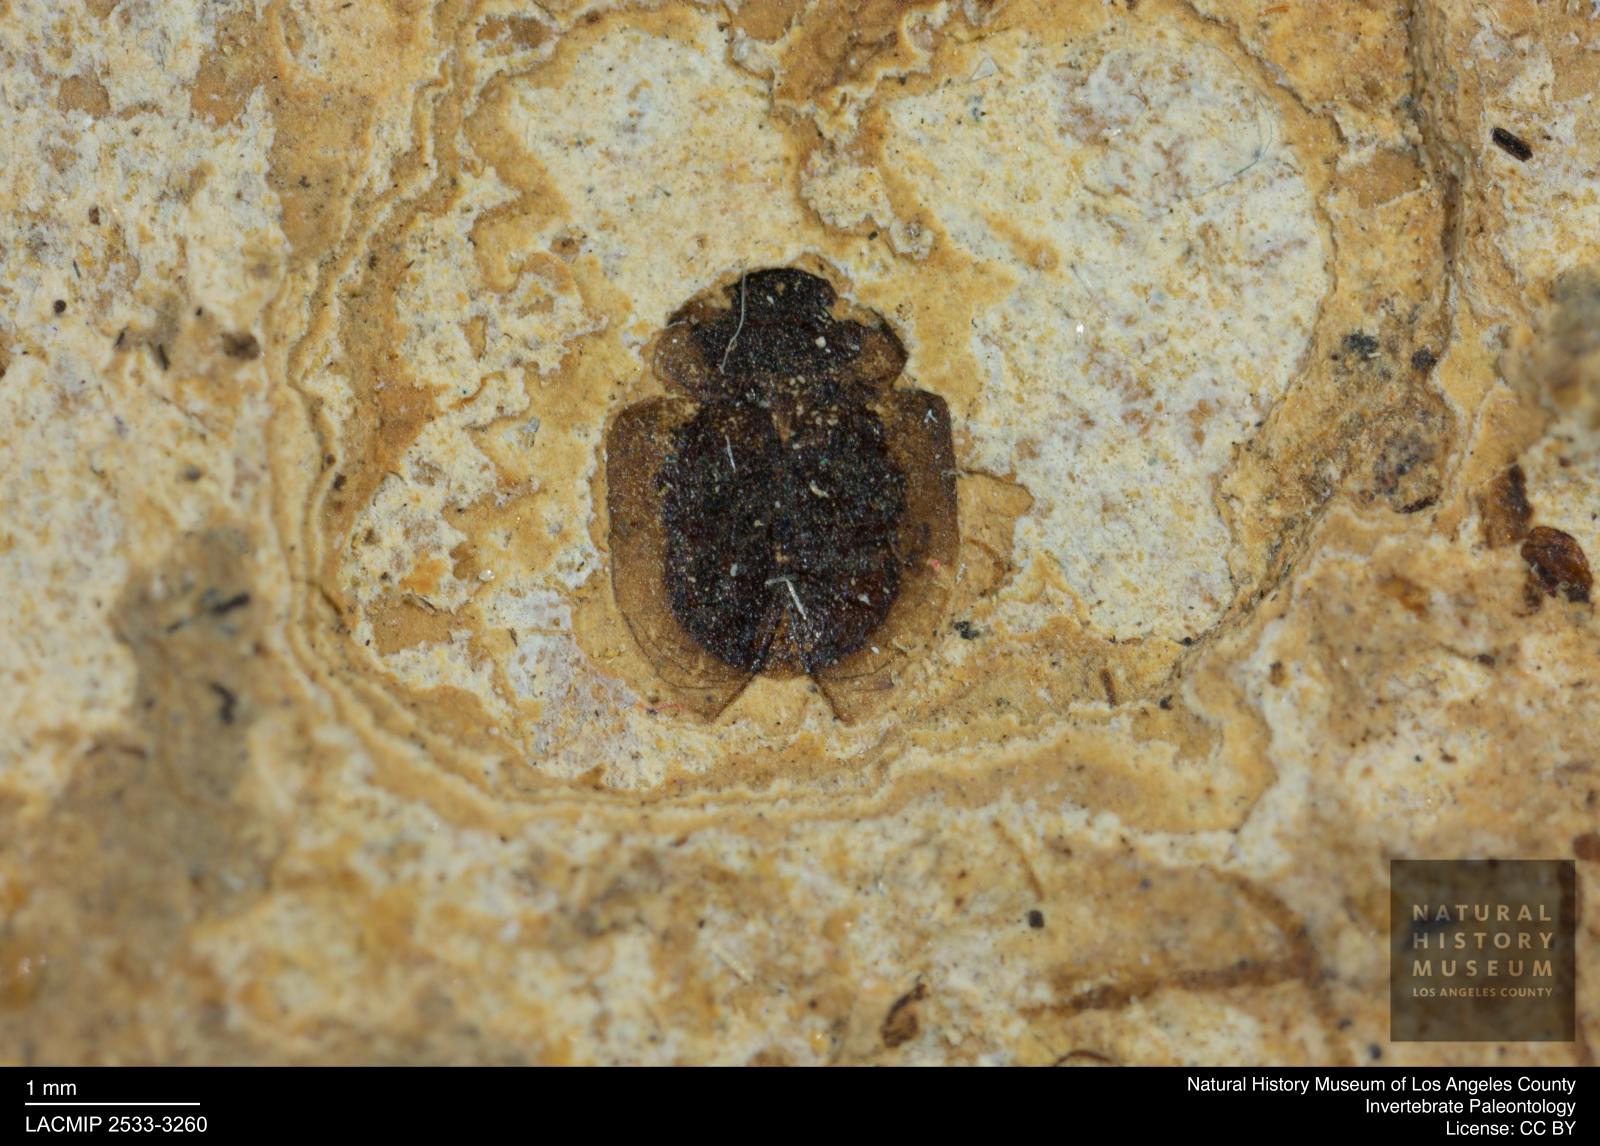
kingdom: Animalia
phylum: Arthropoda
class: Insecta
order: Coleoptera
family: Hydrophilidae
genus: Paracymus
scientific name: Paracymus excitatus
